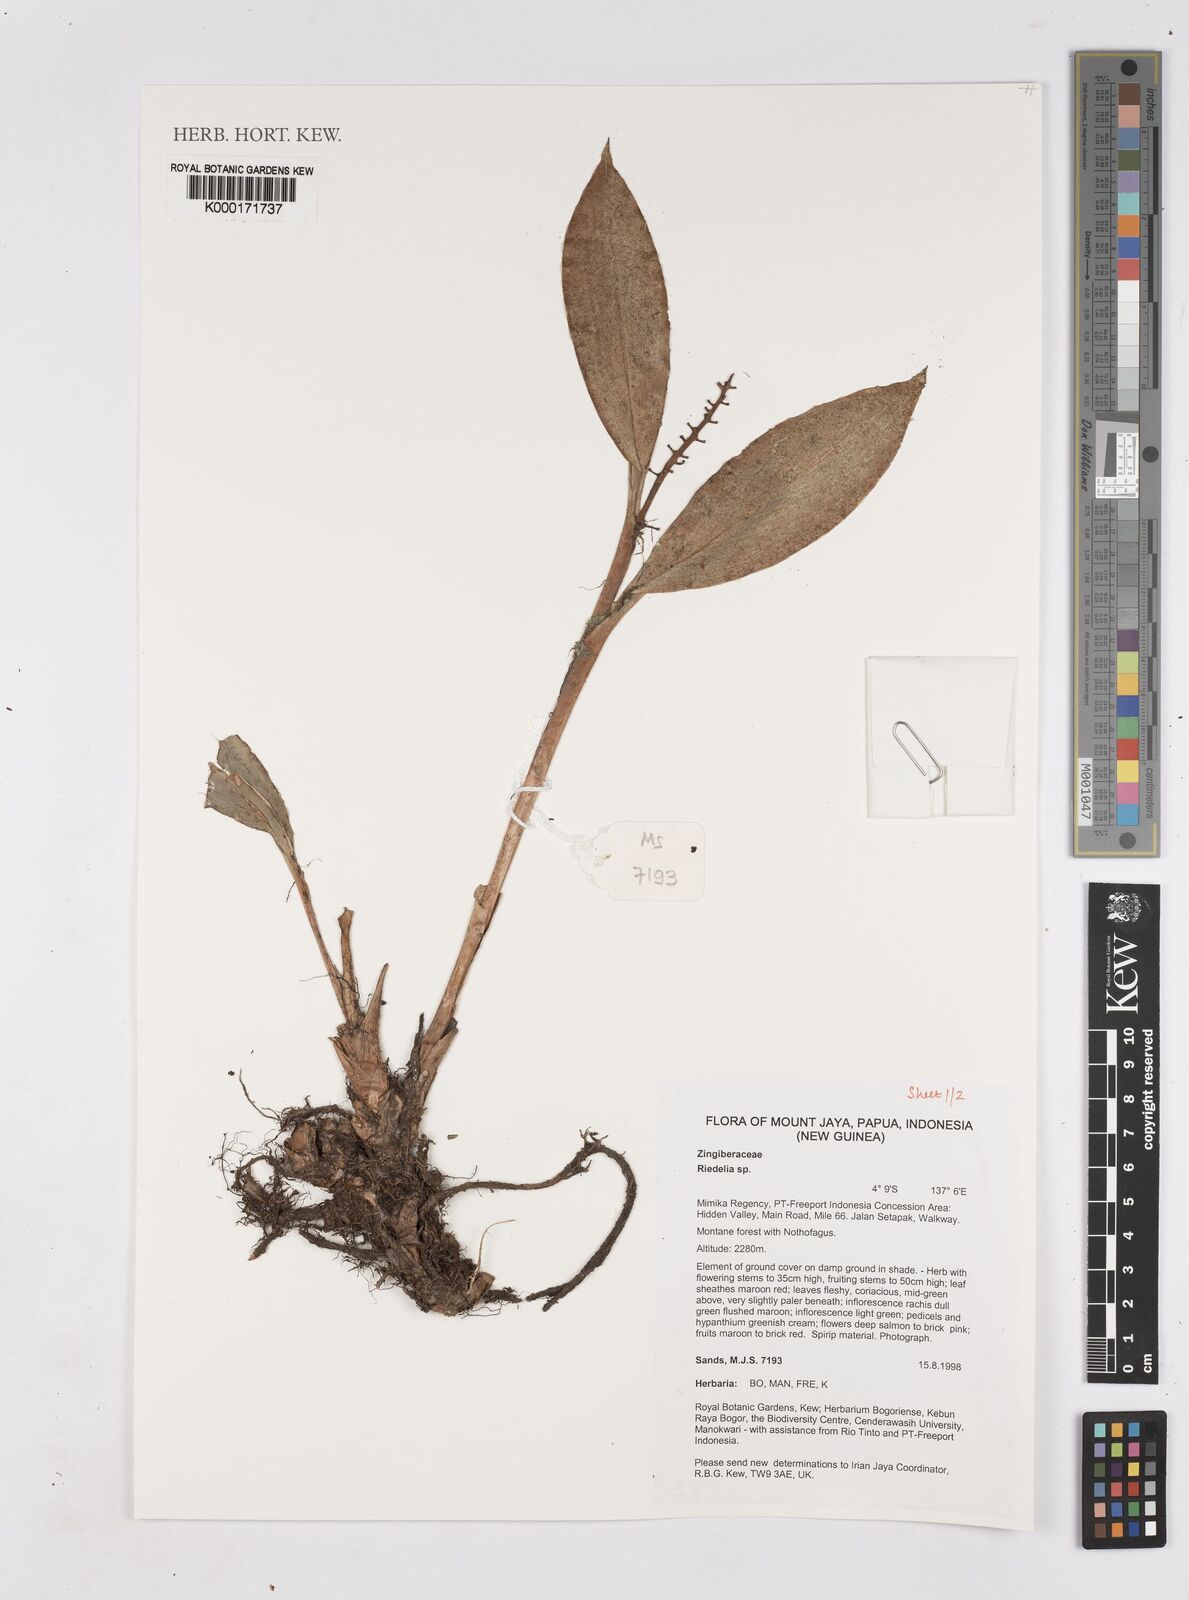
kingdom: Plantae
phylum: Tracheophyta
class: Liliopsida
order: Zingiberales
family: Zingiberaceae
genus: Riedelia
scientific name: Riedelia
